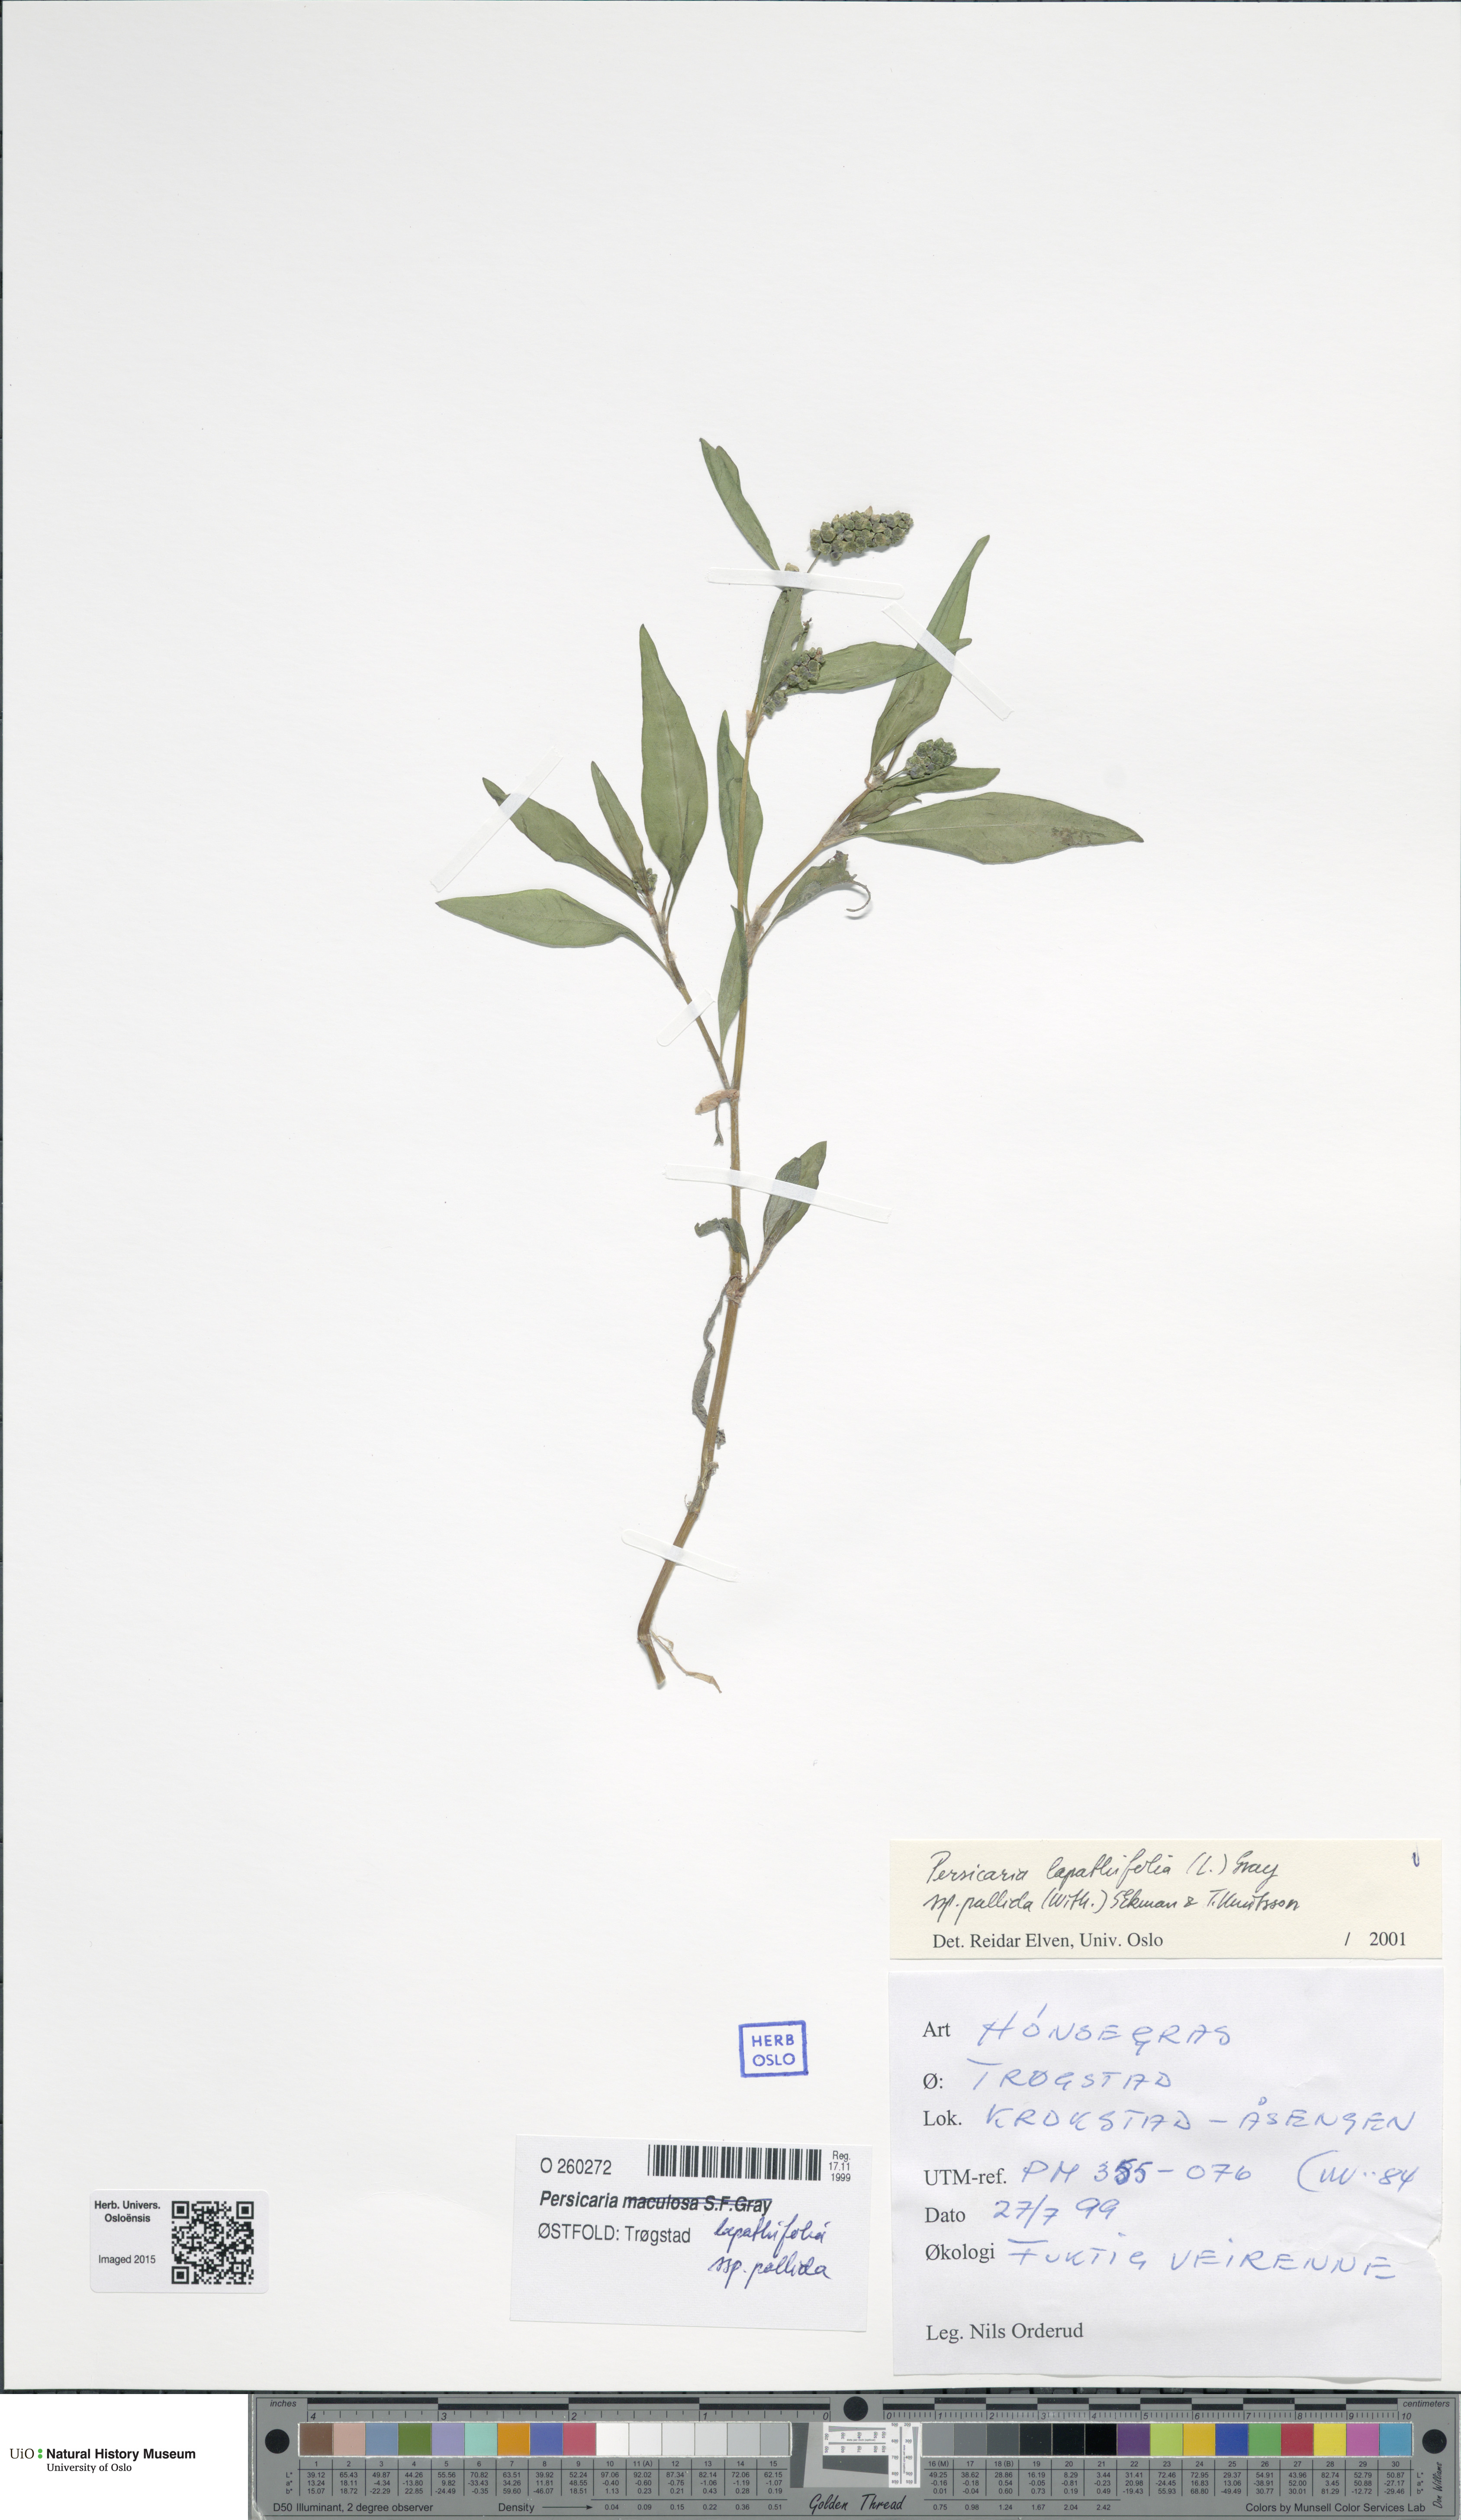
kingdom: Plantae
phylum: Tracheophyta
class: Magnoliopsida
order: Caryophyllales
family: Polygonaceae
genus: Persicaria
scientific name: Persicaria lapathifolia
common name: Curlytop knotweed
